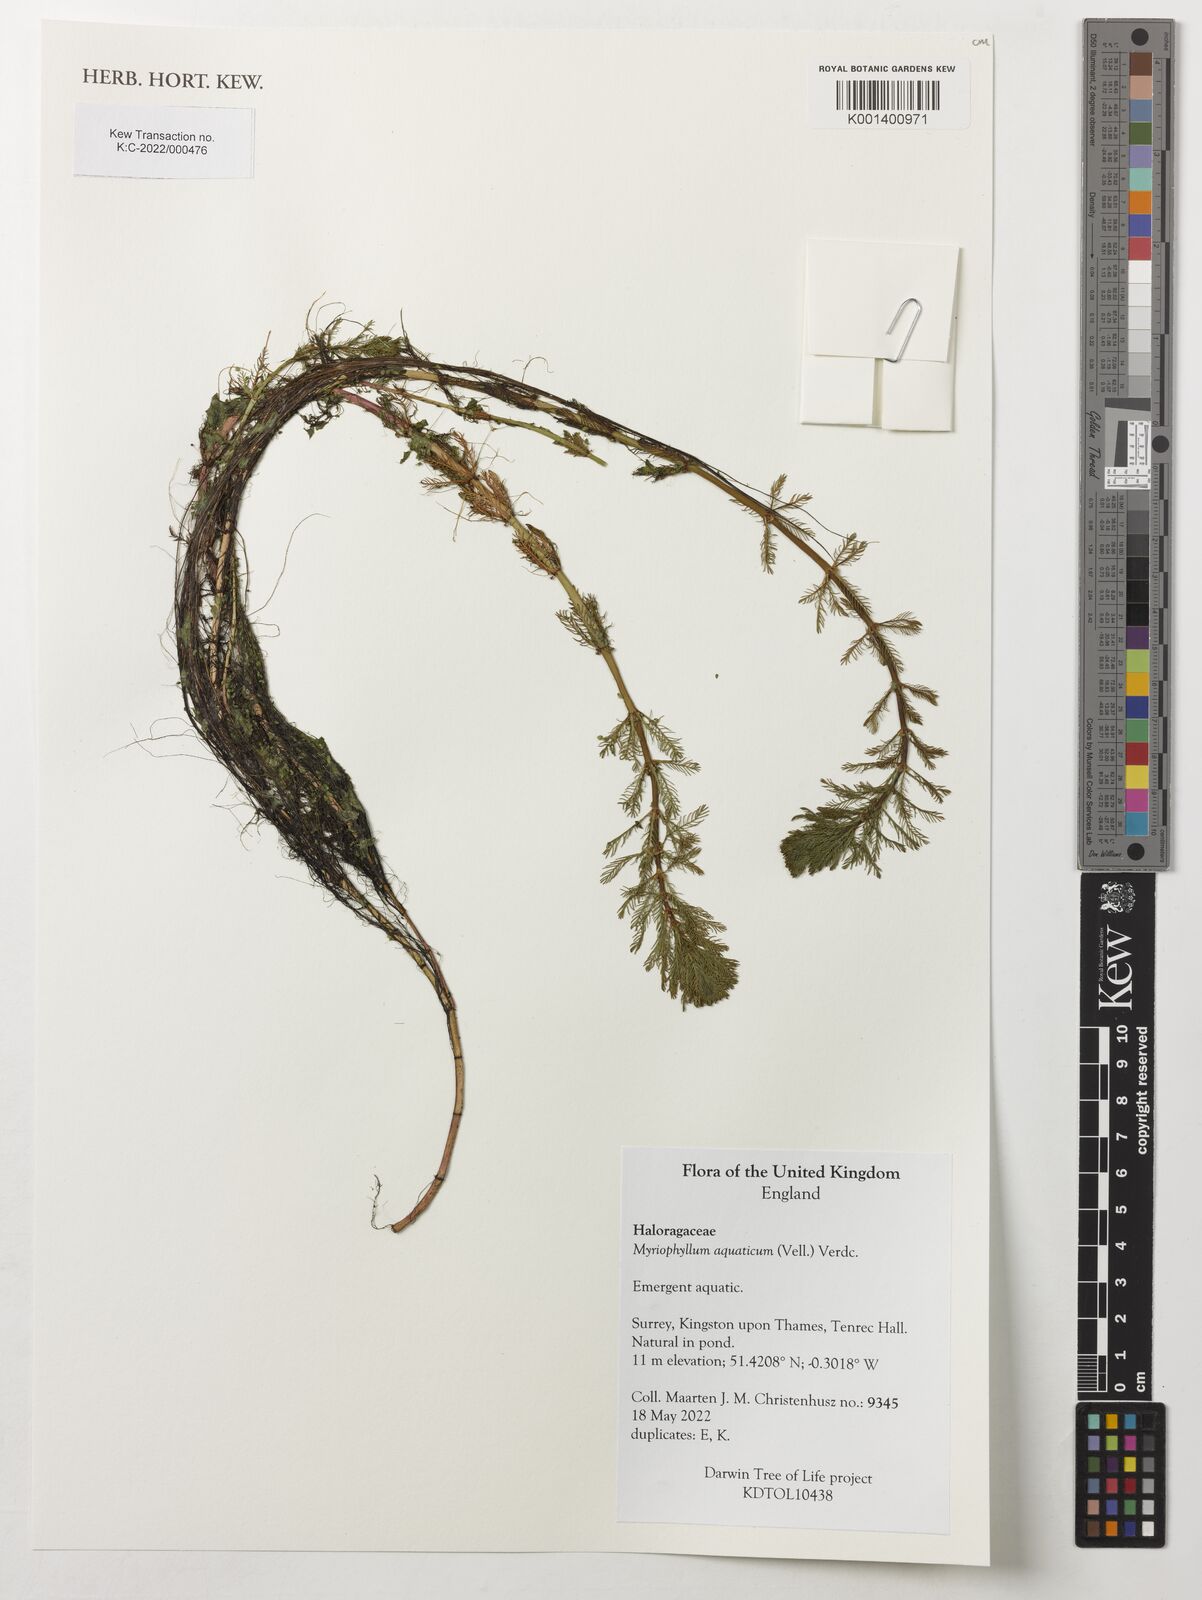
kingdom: Plantae
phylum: Tracheophyta
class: Magnoliopsida
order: Saxifragales
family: Haloragaceae
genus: Myriophyllum
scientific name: Myriophyllum aquaticum
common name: Parrot's feather
